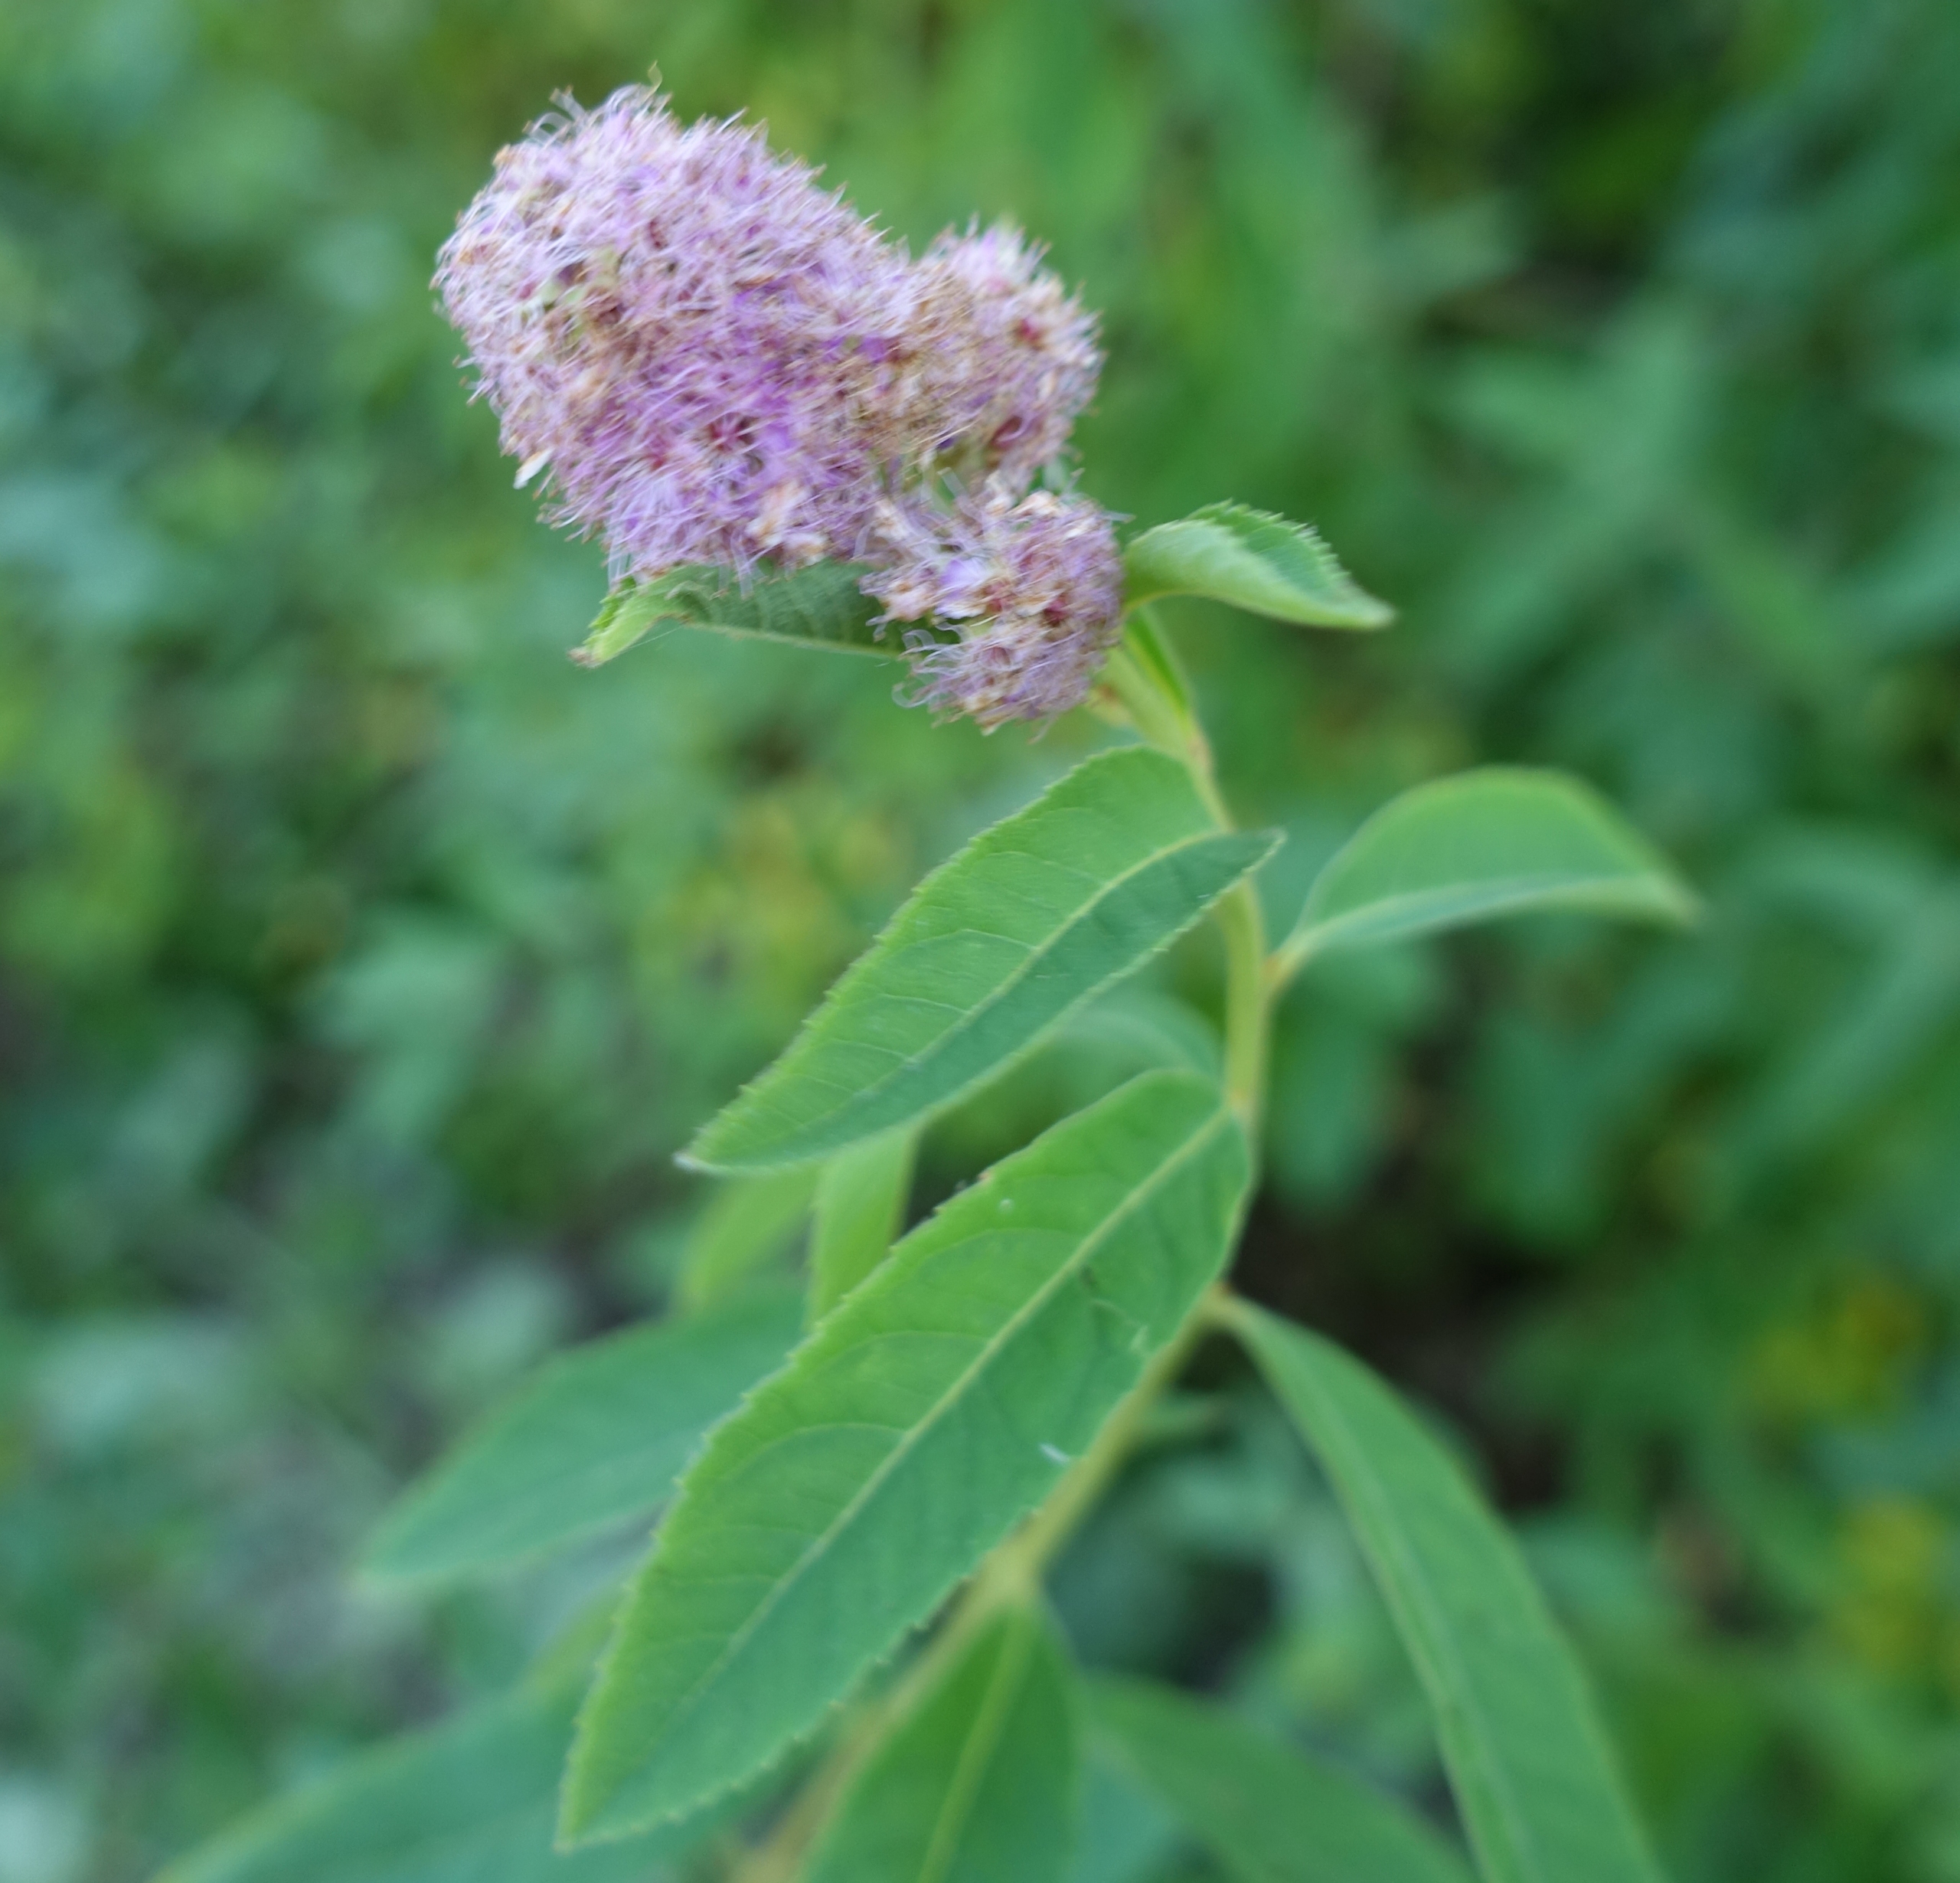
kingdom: Plantae
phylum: Tracheophyta
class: Magnoliopsida
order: Rosales
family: Rosaceae
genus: Spiraea
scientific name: Spiraea billardii
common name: Klase-spiræa
